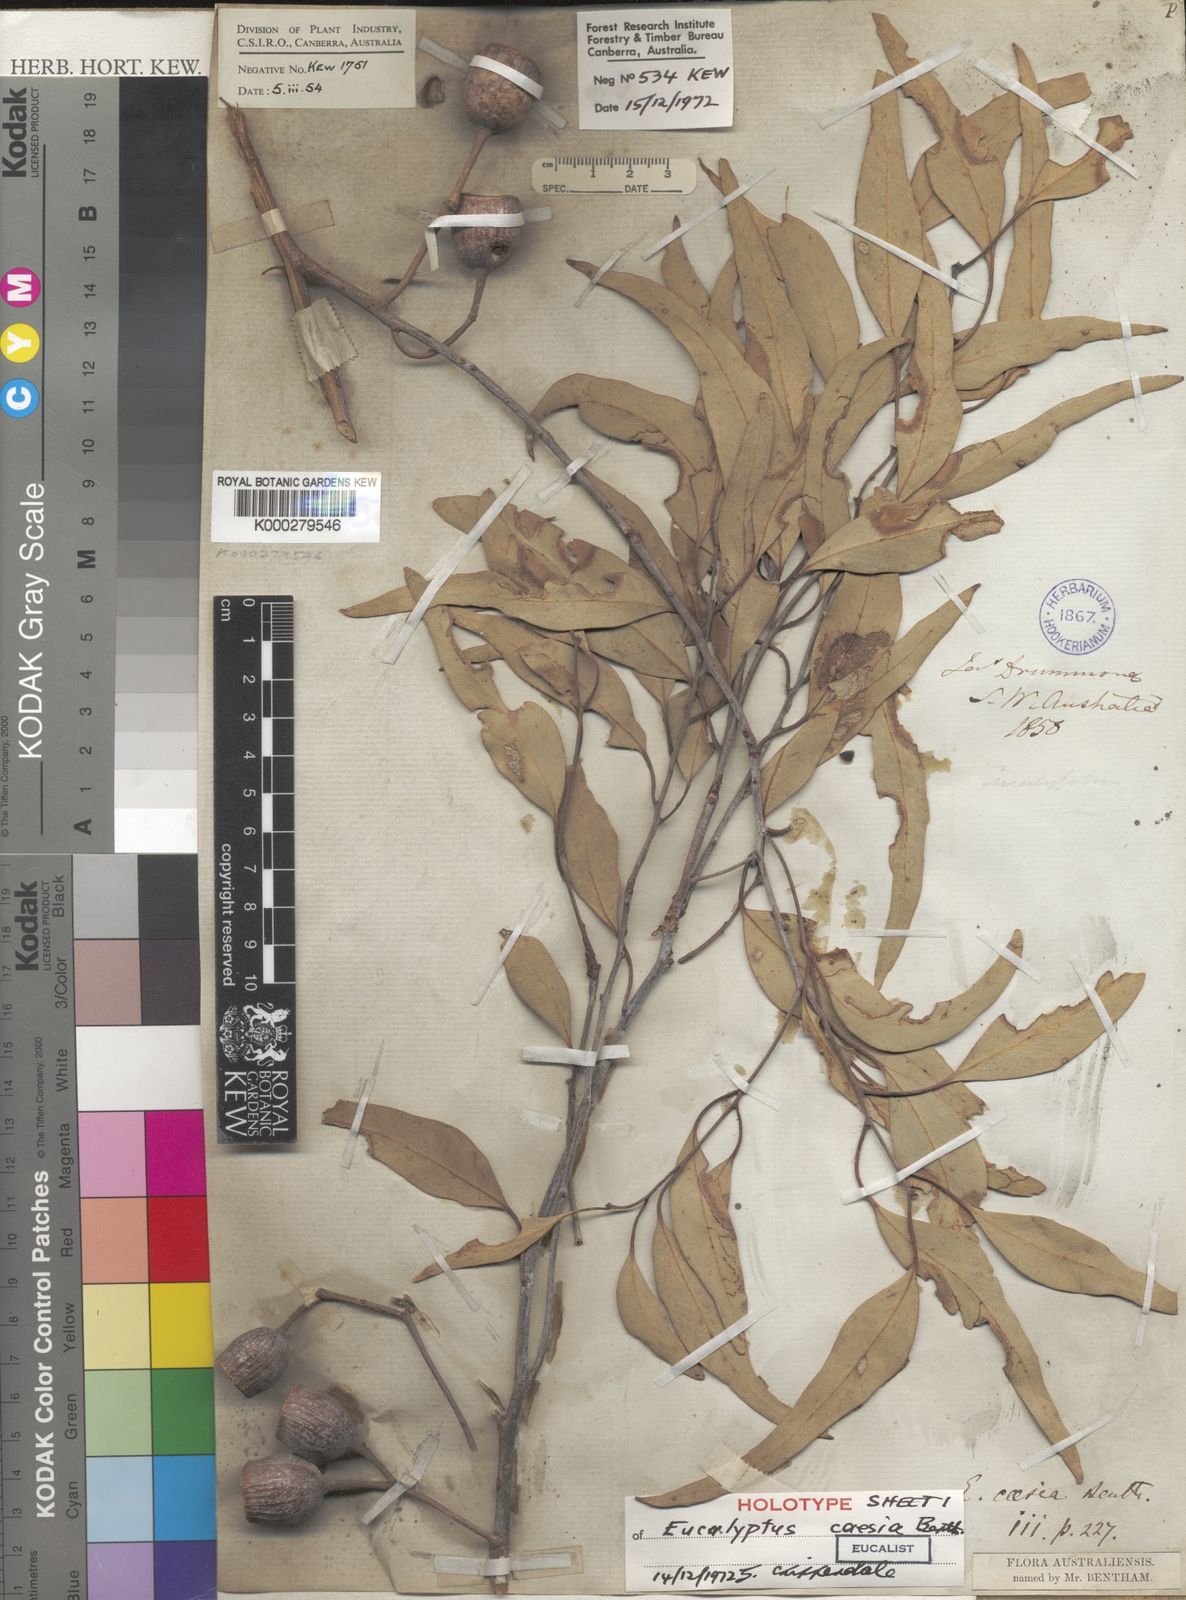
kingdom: Plantae
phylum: Tracheophyta
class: Magnoliopsida
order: Myrtales
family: Myrtaceae
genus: Eucalyptus
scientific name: Eucalyptus caesia
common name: Silver princess
